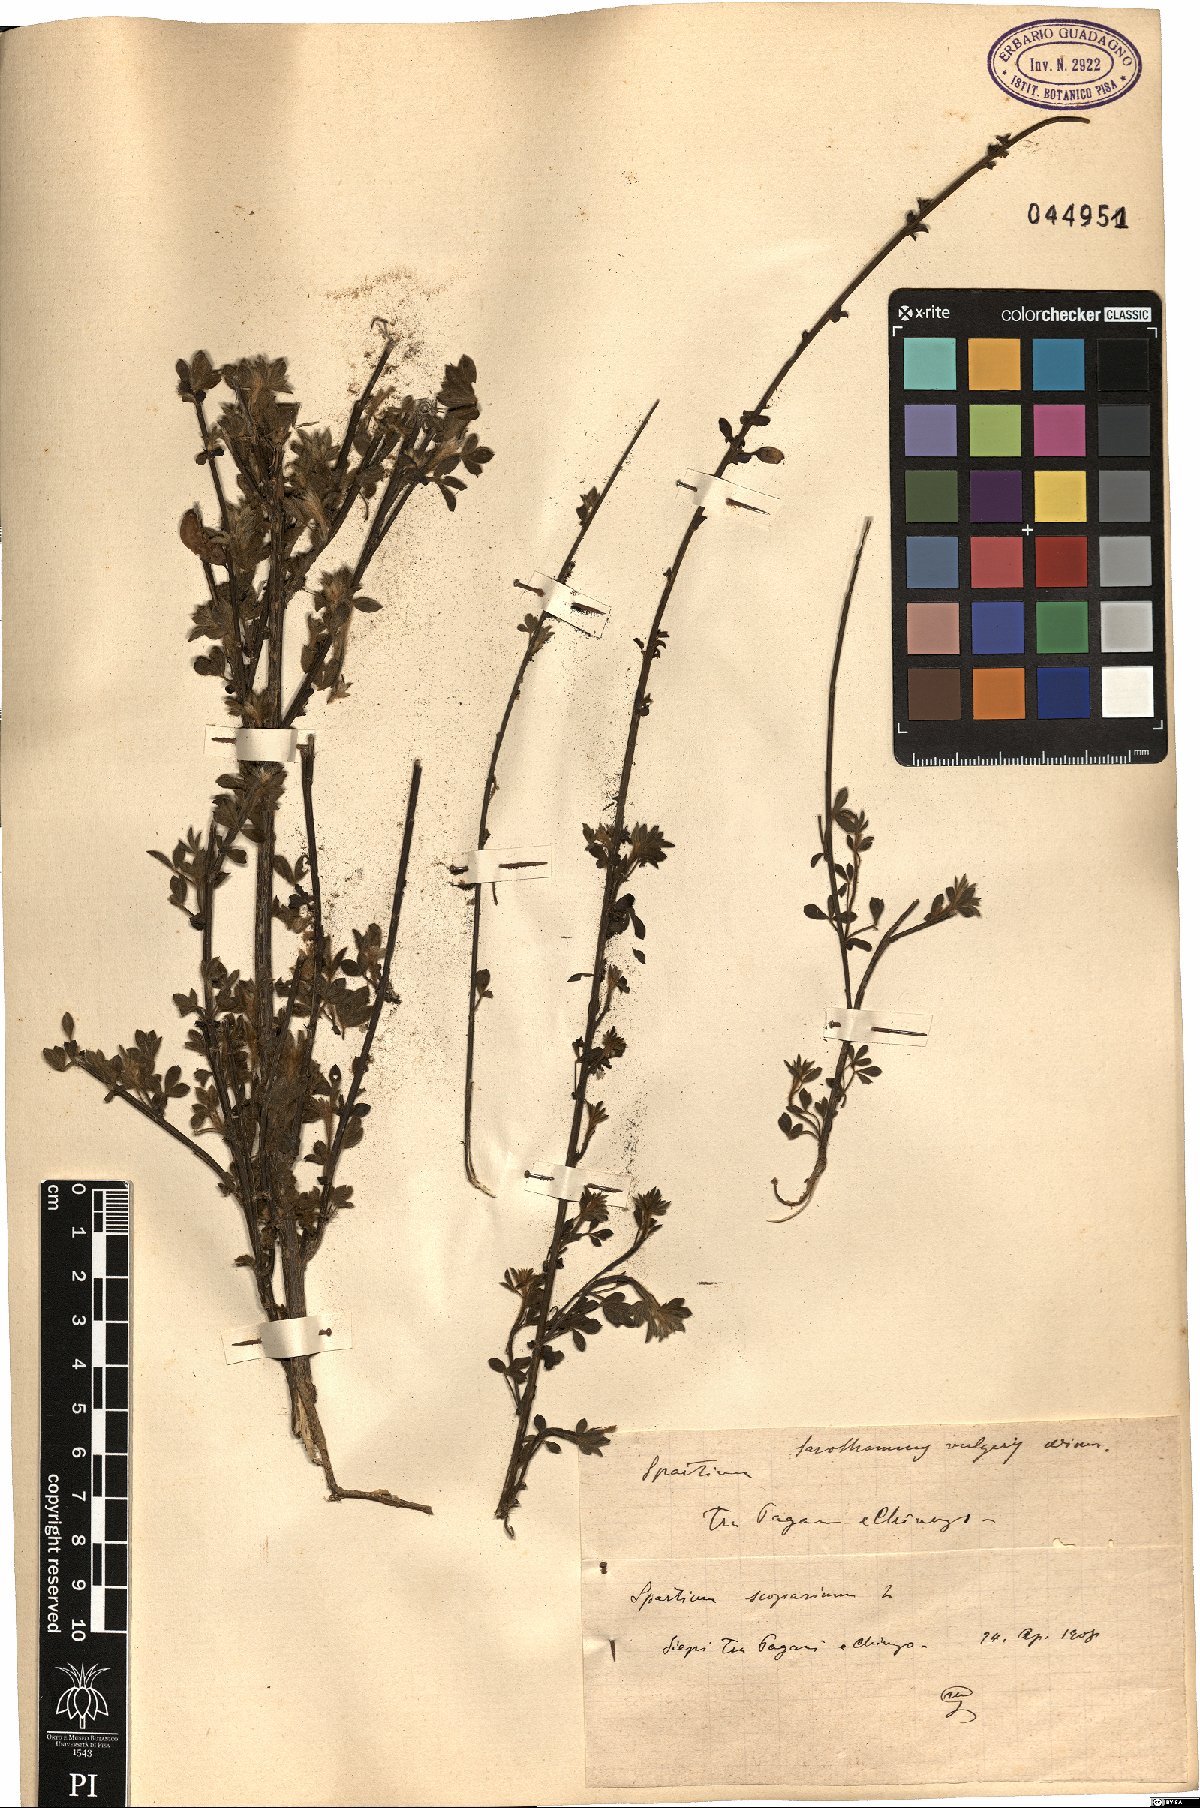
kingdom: Plantae
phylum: Tracheophyta
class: Magnoliopsida
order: Fabales
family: Fabaceae
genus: Cytisus
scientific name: Cytisus scoparius
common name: Scotch broom
